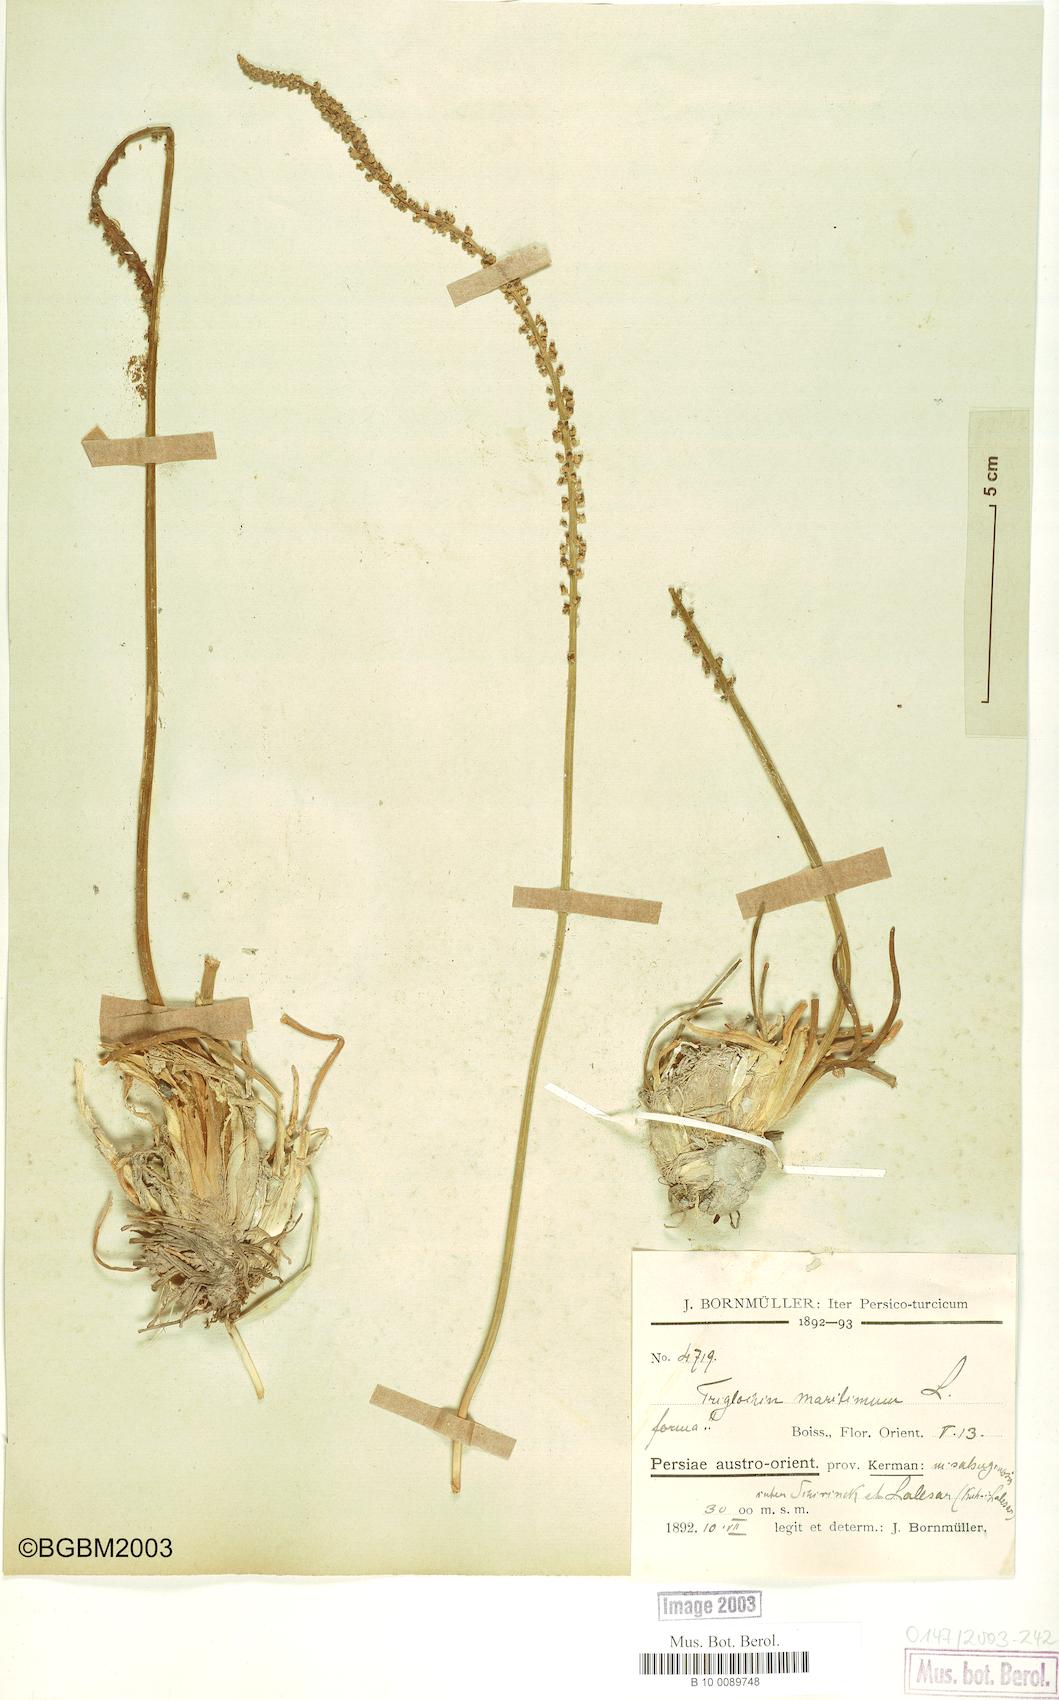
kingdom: Plantae
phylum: Tracheophyta
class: Liliopsida
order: Alismatales
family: Juncaginaceae
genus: Triglochin
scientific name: Triglochin maritima
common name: Sea arrowgrass
